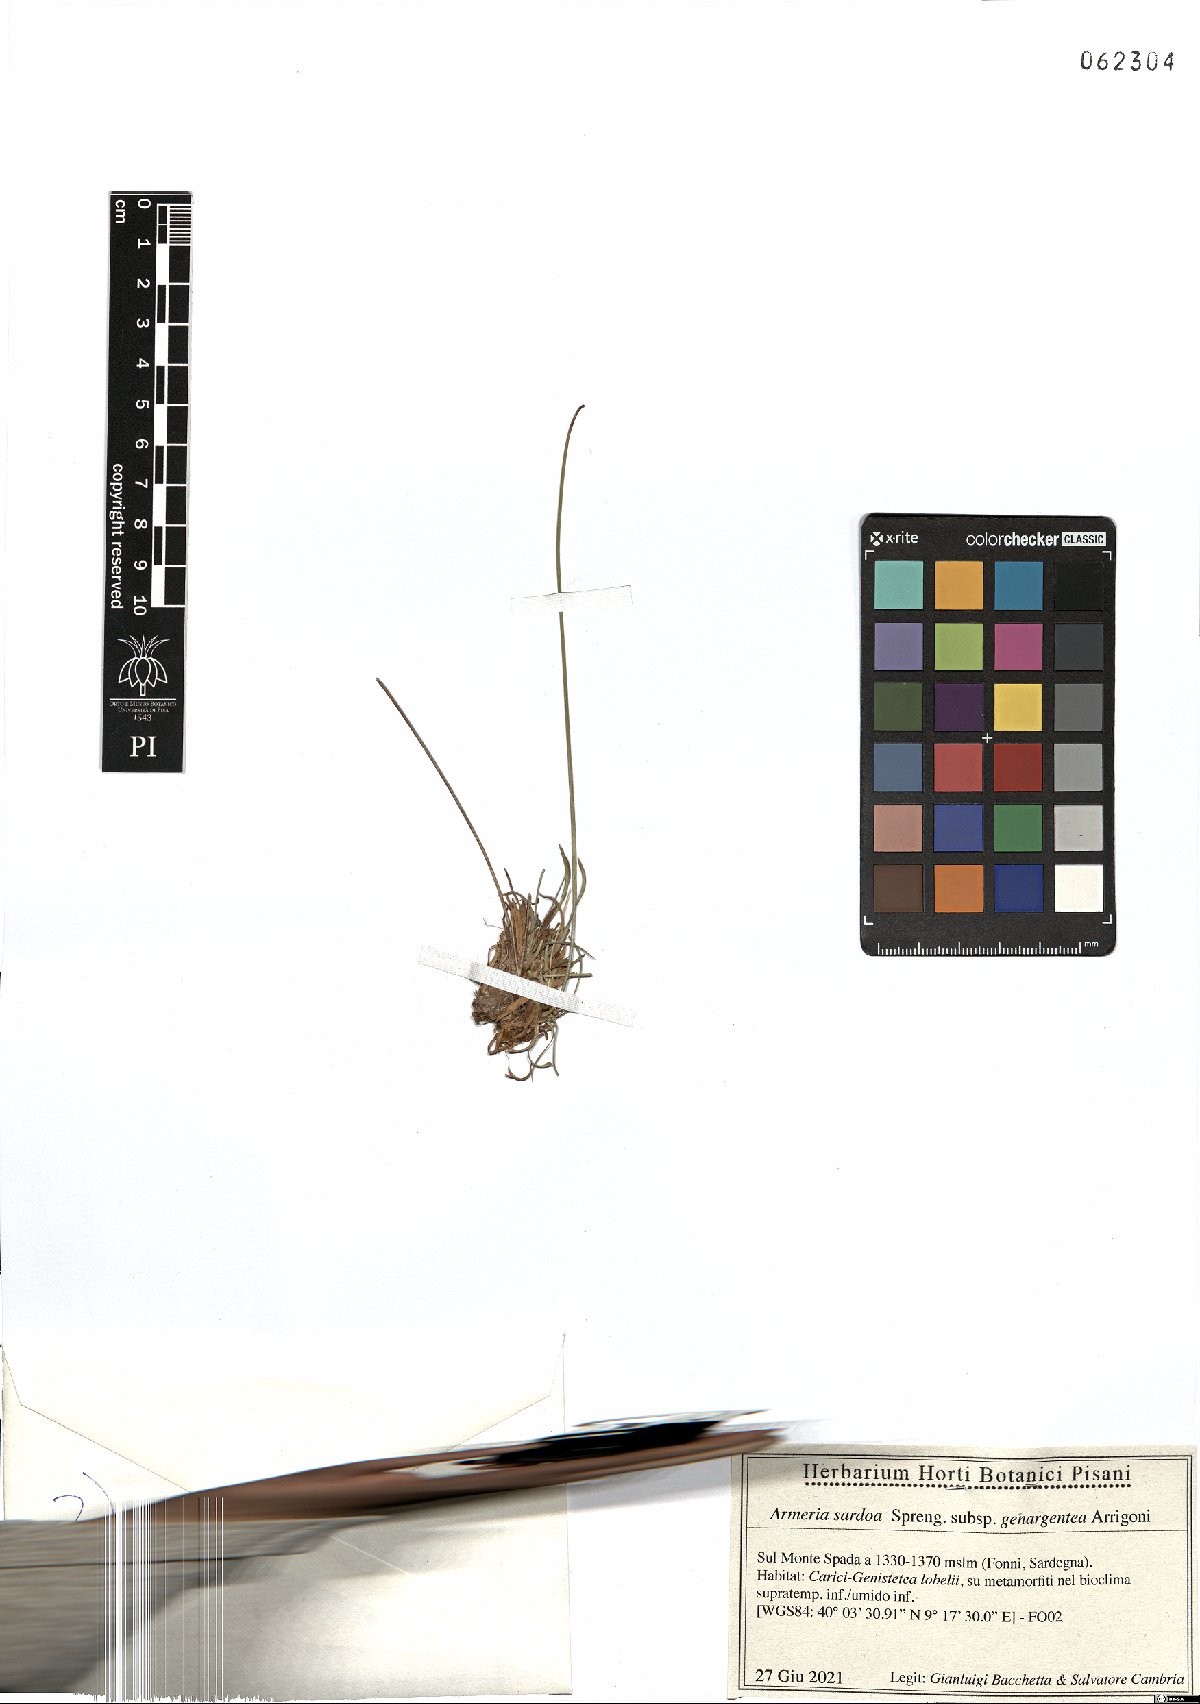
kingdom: Plantae
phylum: Tracheophyta
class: Magnoliopsida
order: Caryophyllales
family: Plumbaginaceae
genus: Armeria
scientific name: Armeria sardoa
